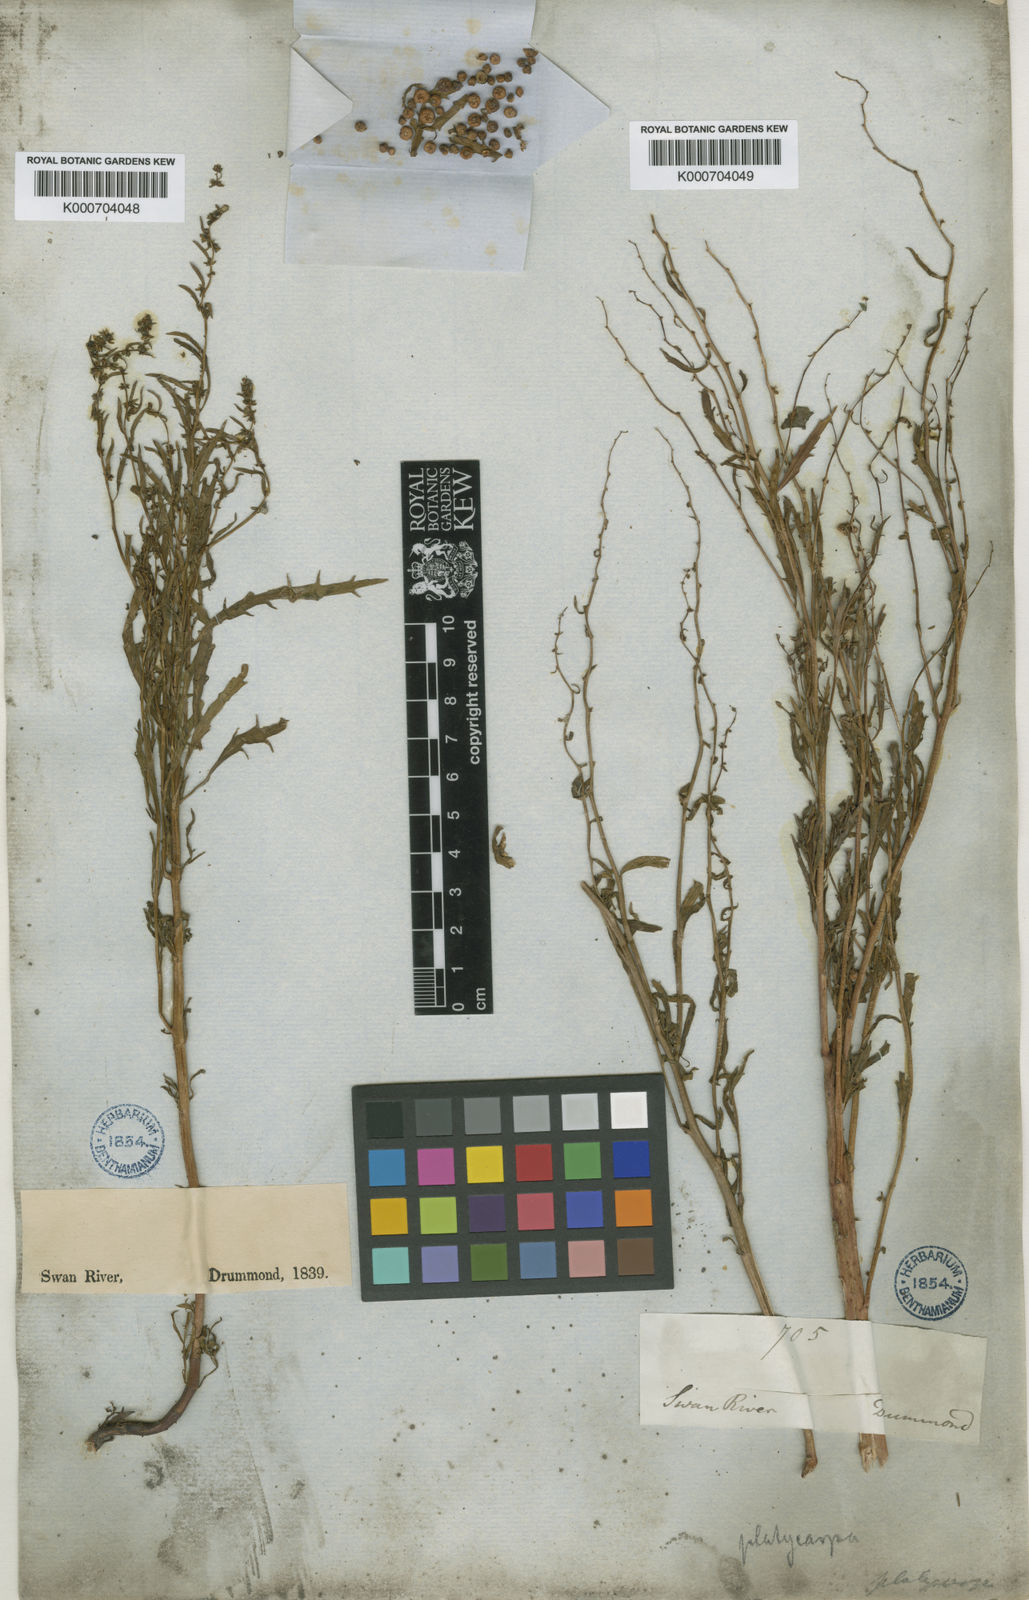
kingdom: Plantae
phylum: Tracheophyta
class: Magnoliopsida
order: Saxifragales
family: Haloragaceae
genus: Haloragis
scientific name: Haloragis platycarpa
